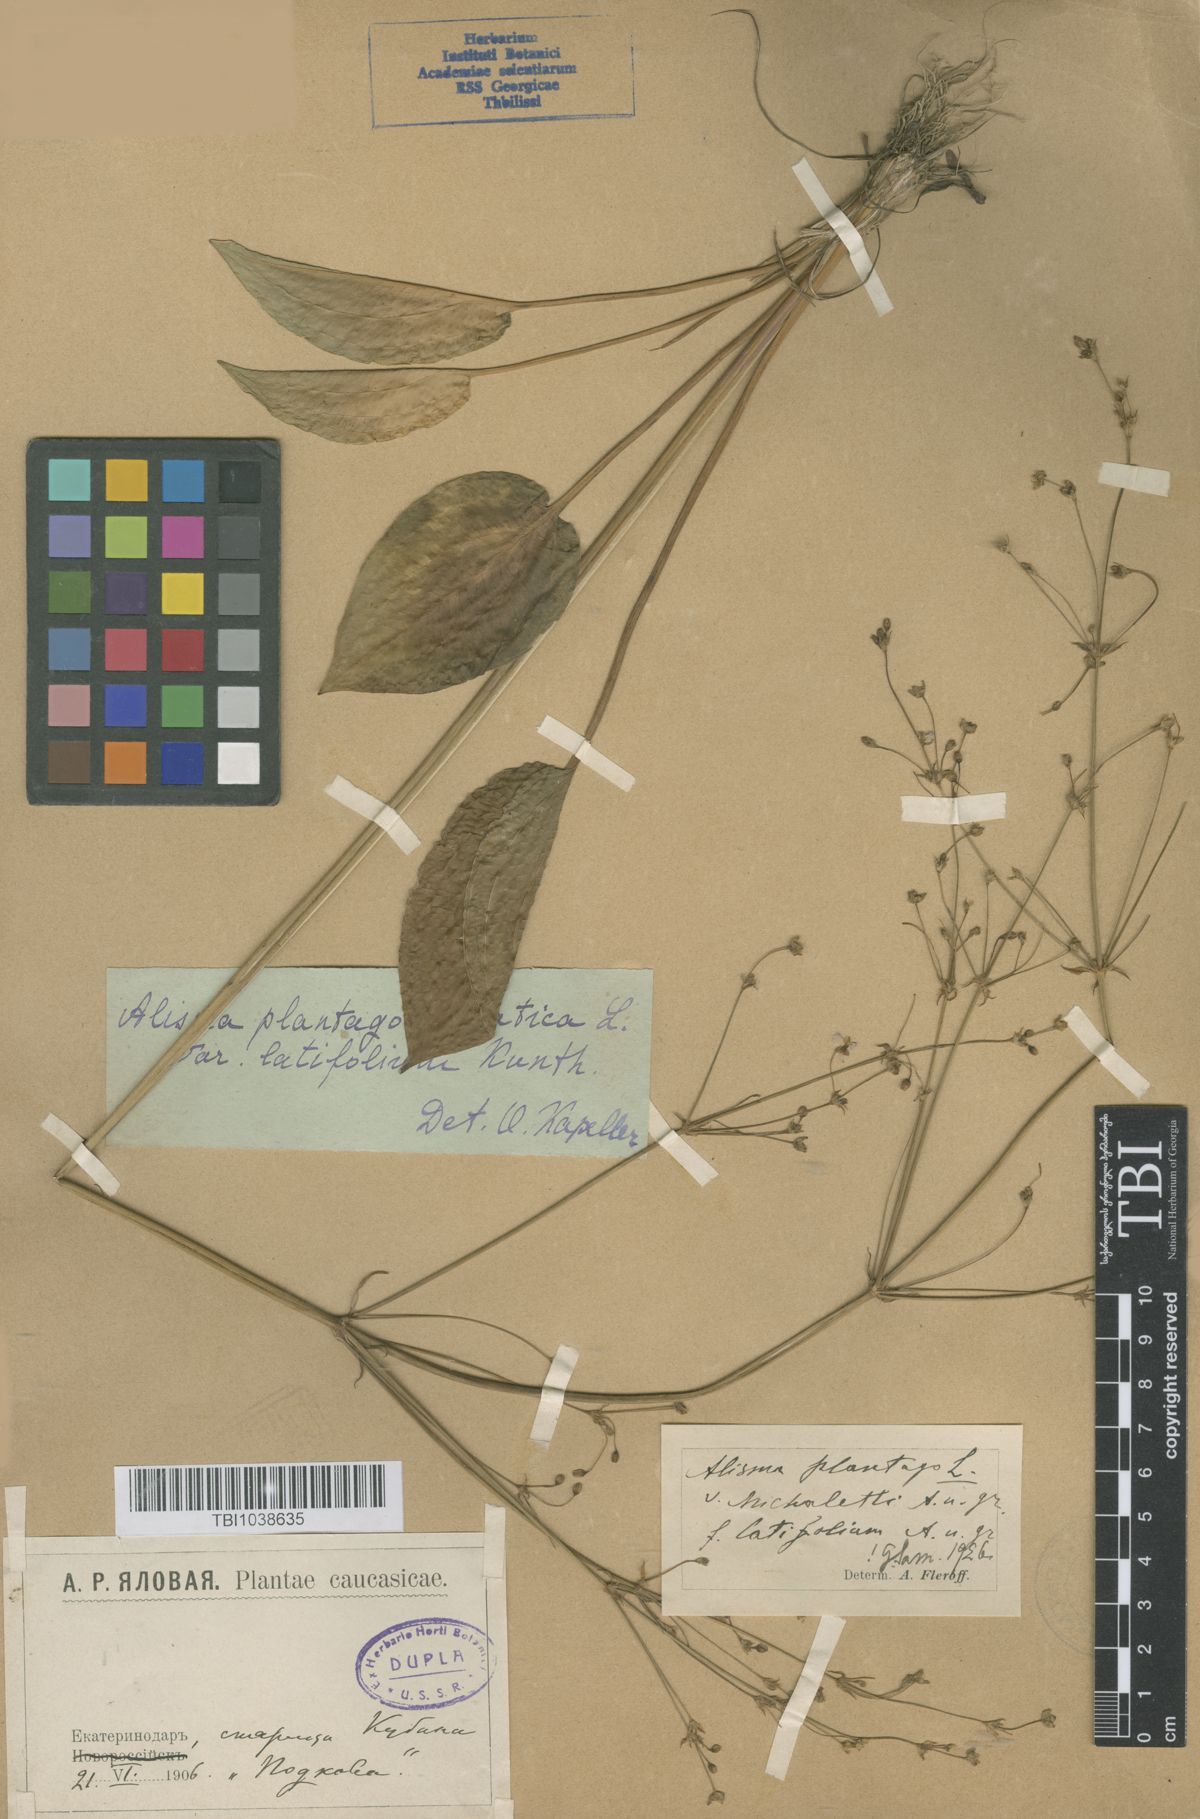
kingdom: Plantae
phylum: Tracheophyta
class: Liliopsida
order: Alismatales
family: Alismataceae
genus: Alisma
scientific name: Alisma plantago-aquatica
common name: Water-plantain
